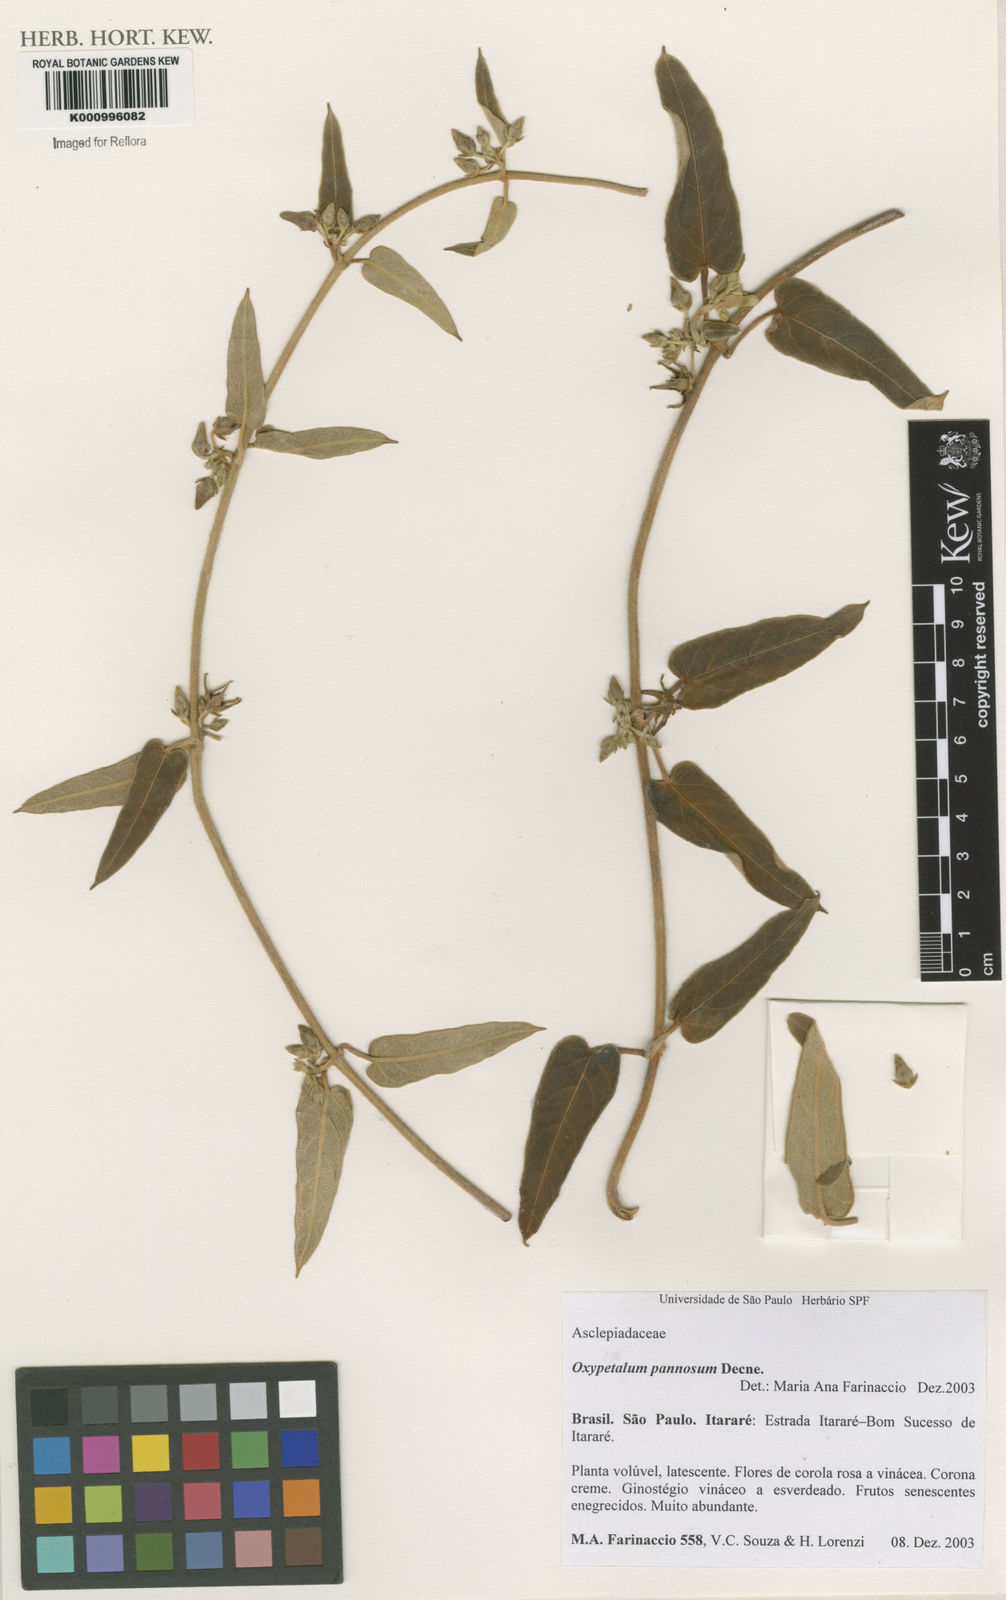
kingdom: Plantae
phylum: Tracheophyta
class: Magnoliopsida
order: Gentianales
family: Apocynaceae
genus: Oxypetalum
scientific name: Oxypetalum pannosum
